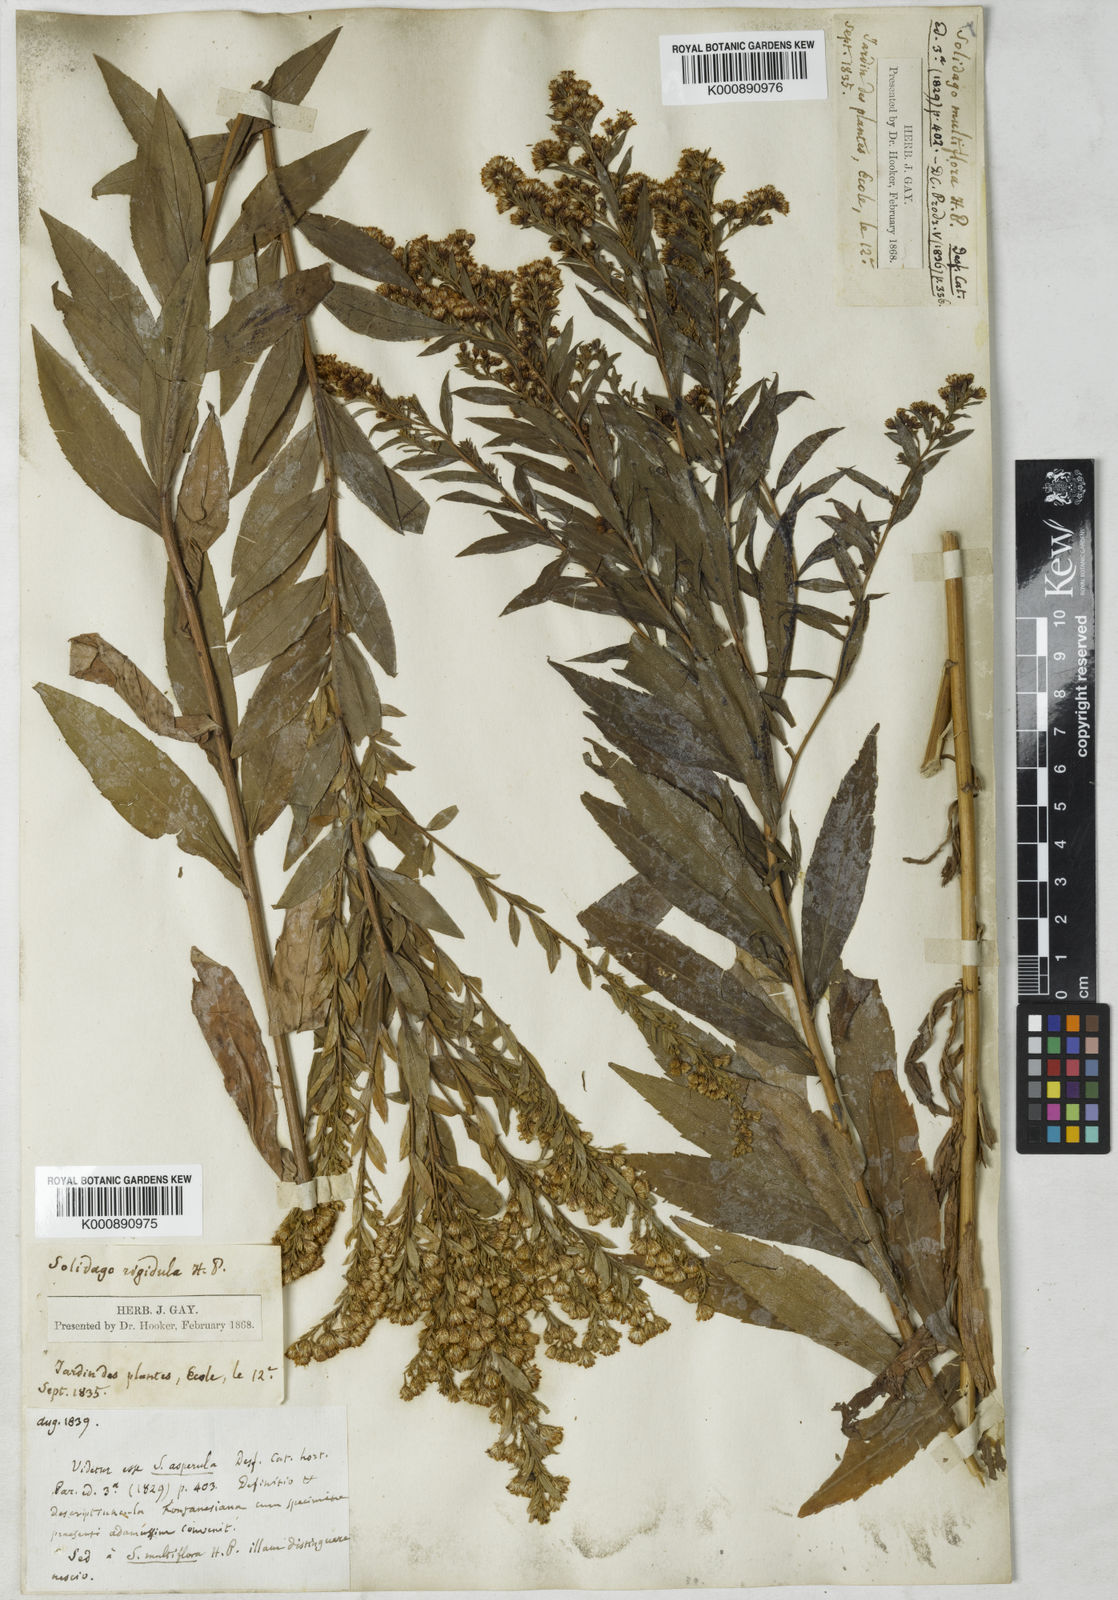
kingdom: Plantae
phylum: Tracheophyta
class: Magnoliopsida
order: Asterales
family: Asteraceae
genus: Solidago
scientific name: Solidago rugosa
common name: Rough-stemmed goldenrod
